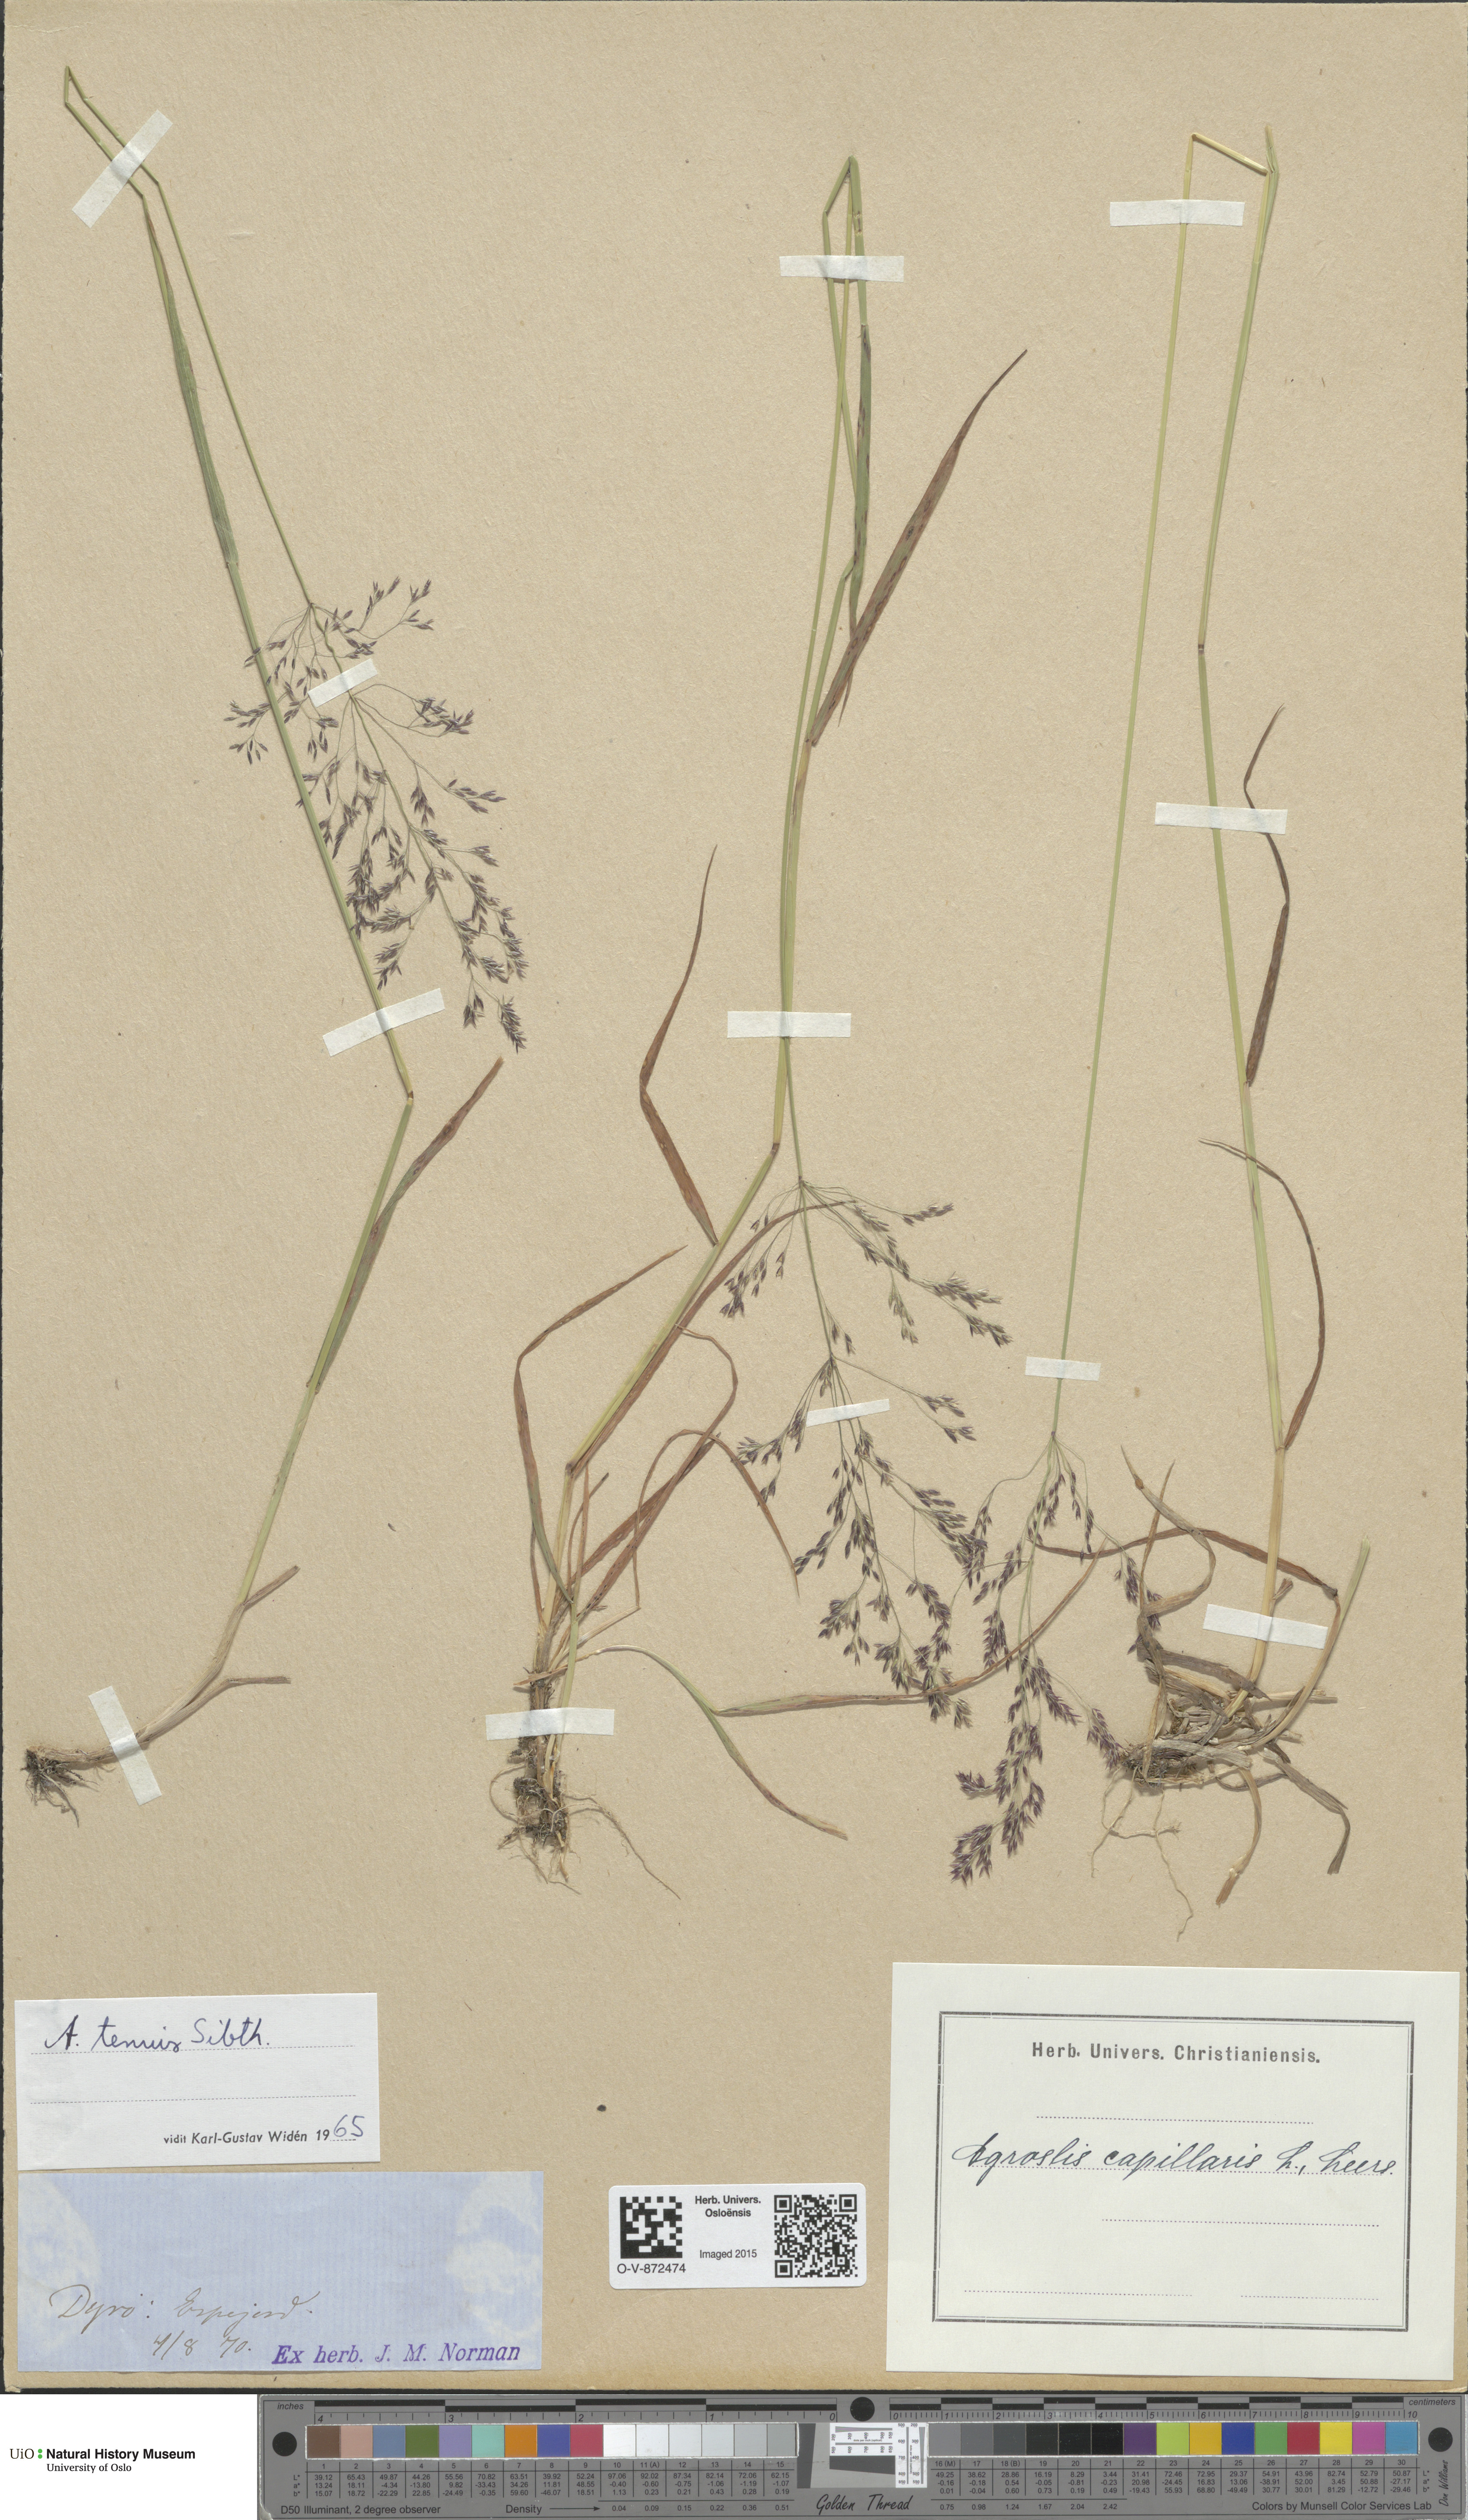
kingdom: Plantae
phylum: Tracheophyta
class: Liliopsida
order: Poales
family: Poaceae
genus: Agrostis
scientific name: Agrostis capillaris
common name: Colonial bentgrass
